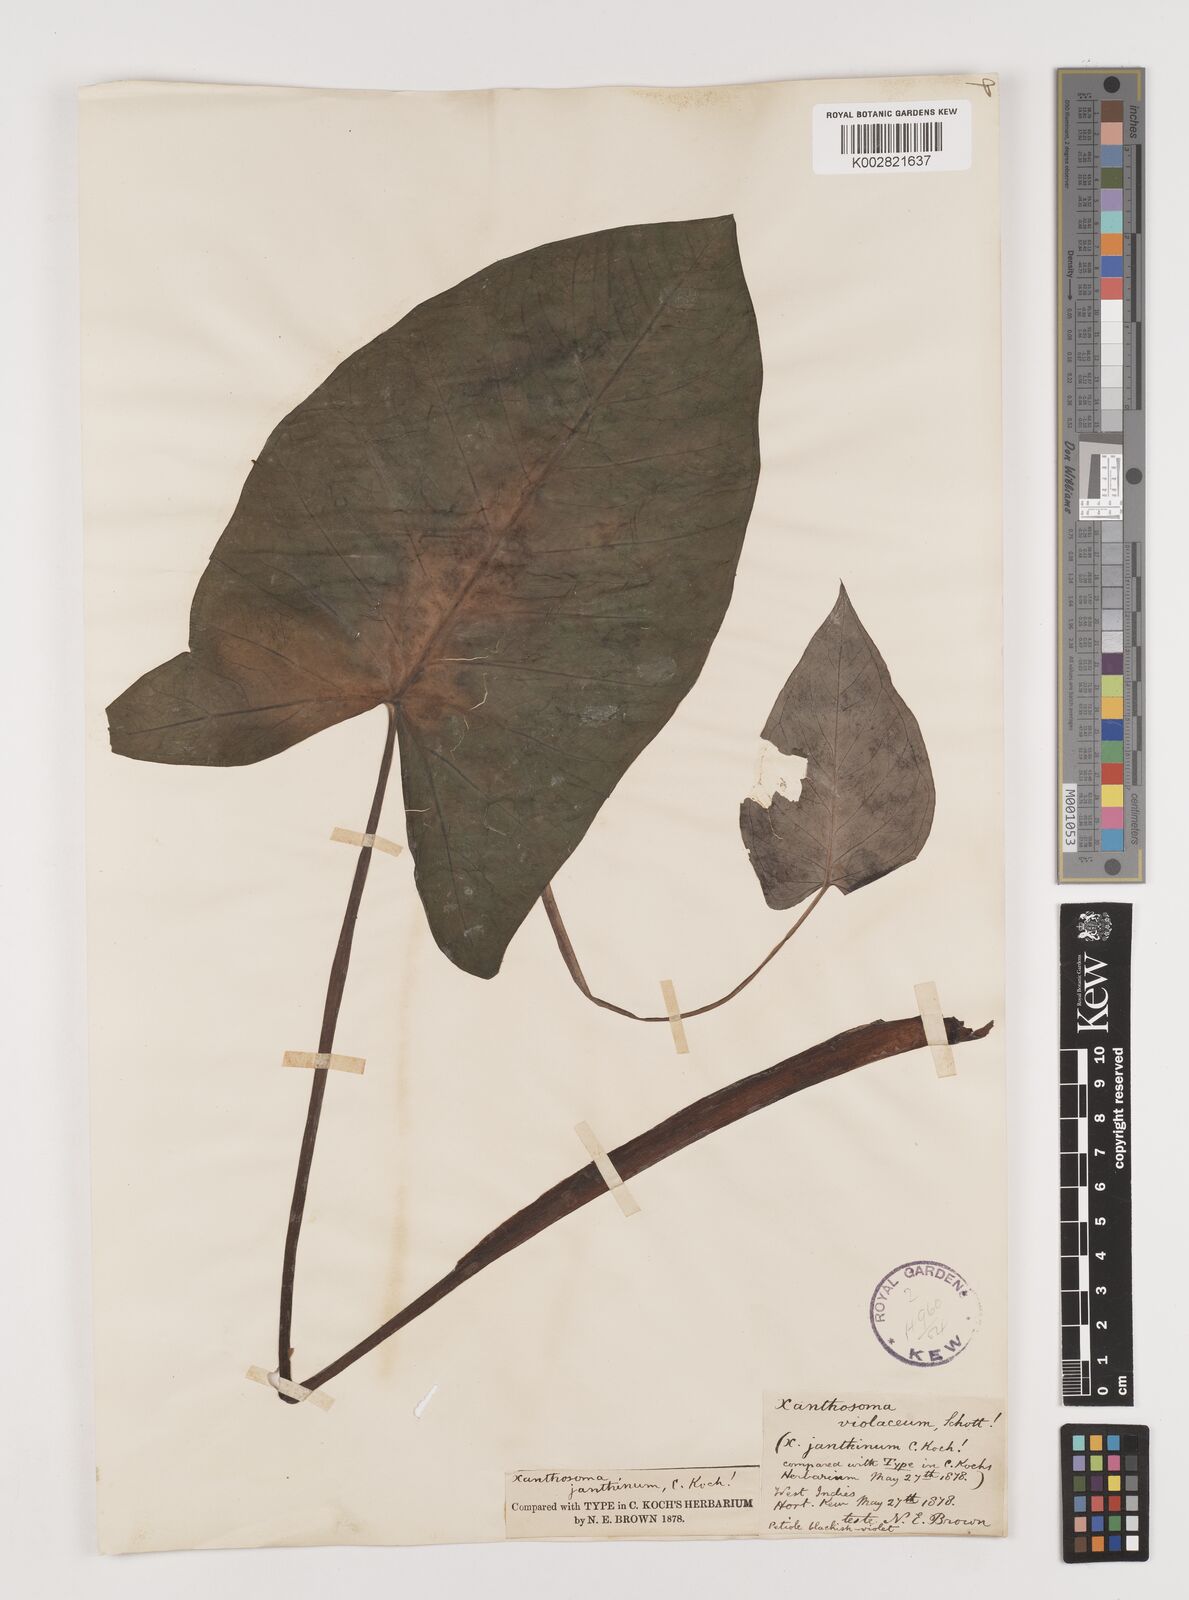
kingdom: Plantae
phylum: Tracheophyta
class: Liliopsida
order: Alismatales
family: Araceae
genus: Xanthosoma
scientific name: Xanthosoma sagittifolium
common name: Arrowleaf elephant's ear
